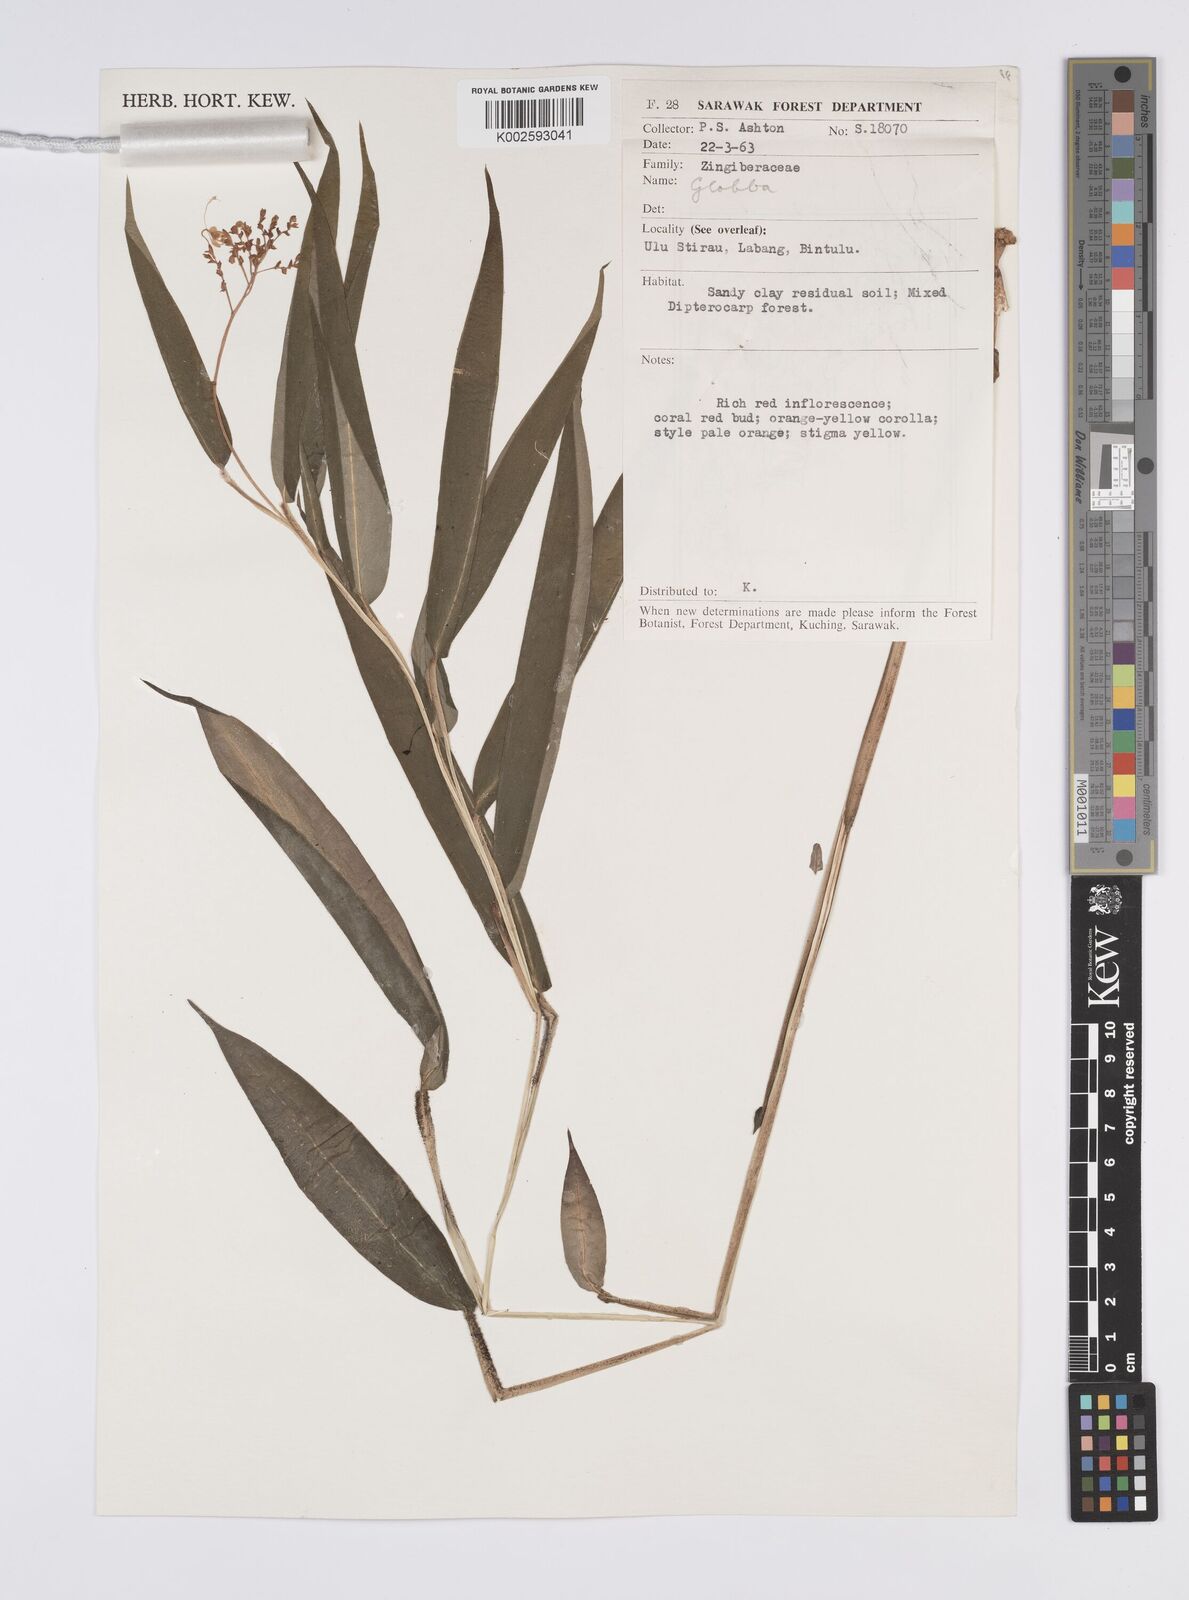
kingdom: Plantae
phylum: Tracheophyta
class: Liliopsida
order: Zingiberales
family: Zingiberaceae
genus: Globba
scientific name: Globba brachyanthera
